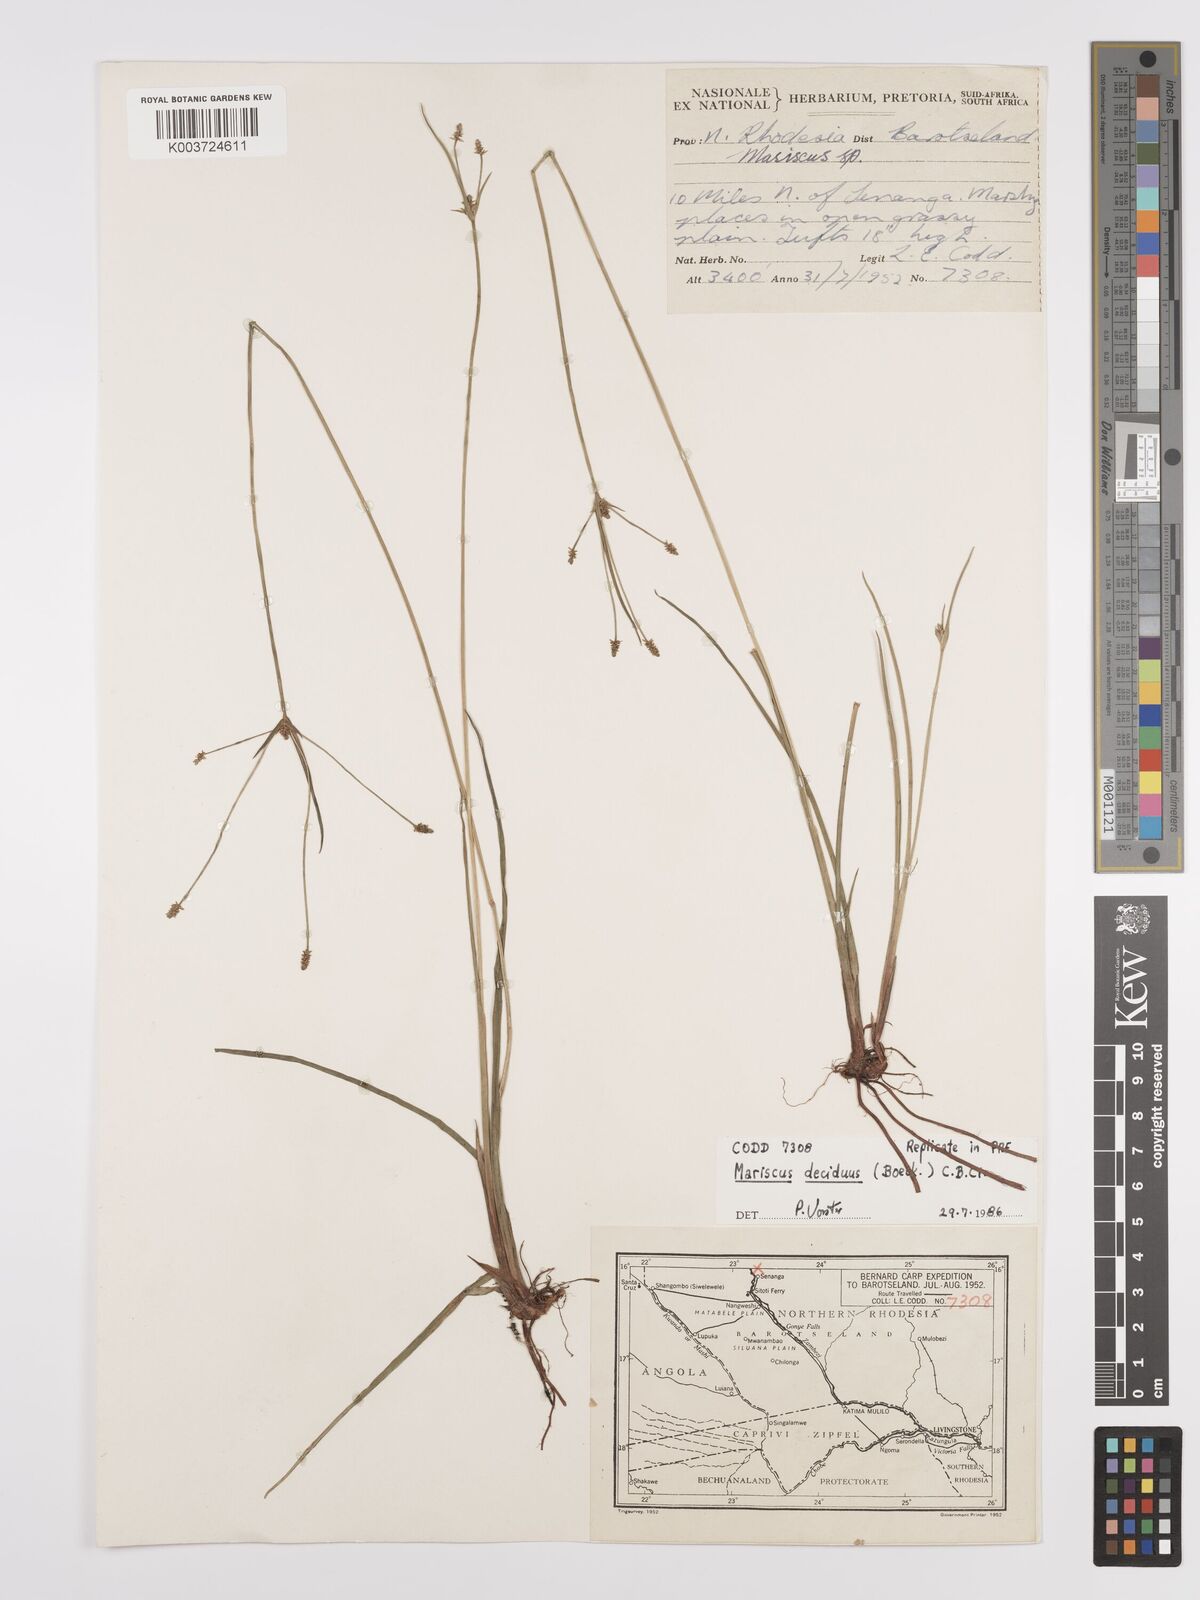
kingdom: Plantae
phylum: Tracheophyta
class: Liliopsida
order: Poales
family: Cyperaceae
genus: Cyperus
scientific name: Cyperus deciduus
